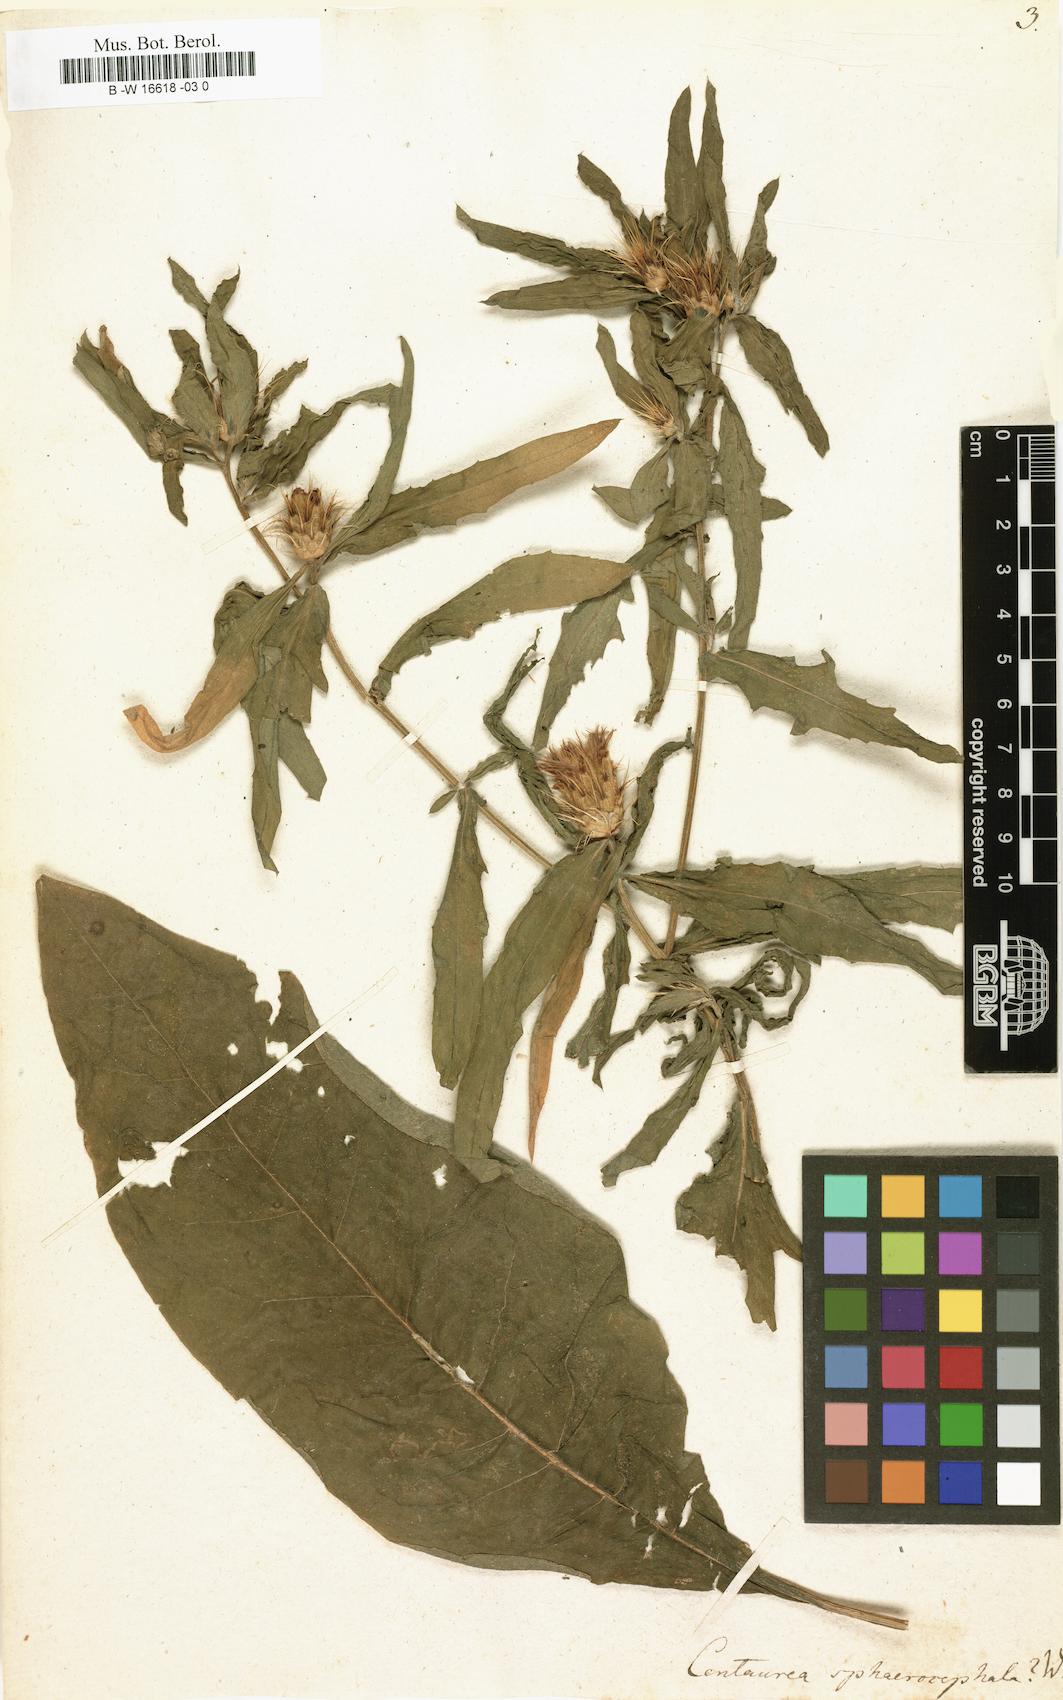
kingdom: Plantae
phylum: Tracheophyta
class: Magnoliopsida
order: Asterales
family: Asteraceae
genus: Centaurea
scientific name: Centaurea sphaerocephala
